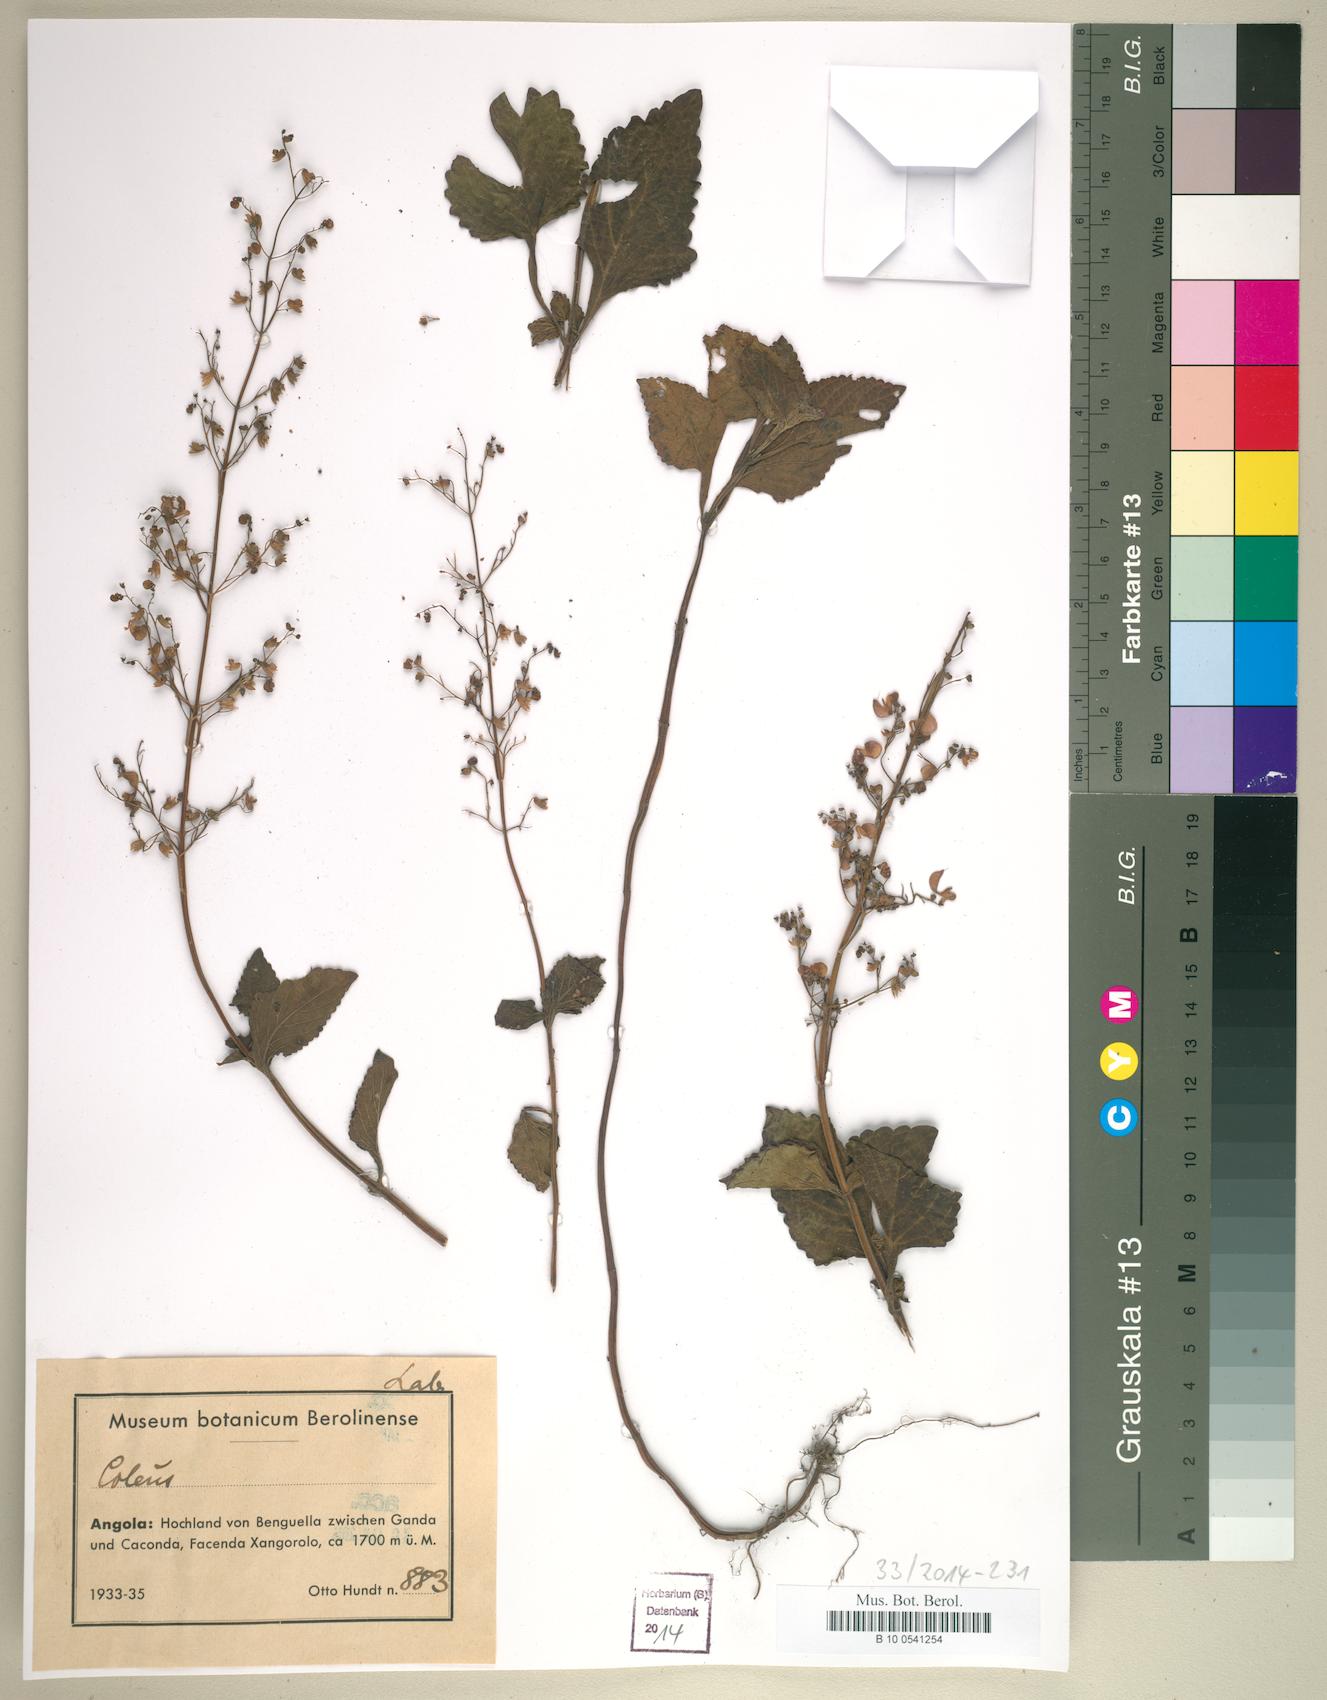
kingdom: Plantae
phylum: Tracheophyta
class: Magnoliopsida
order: Lamiales
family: Lamiaceae
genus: Coleus
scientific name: Coleus
